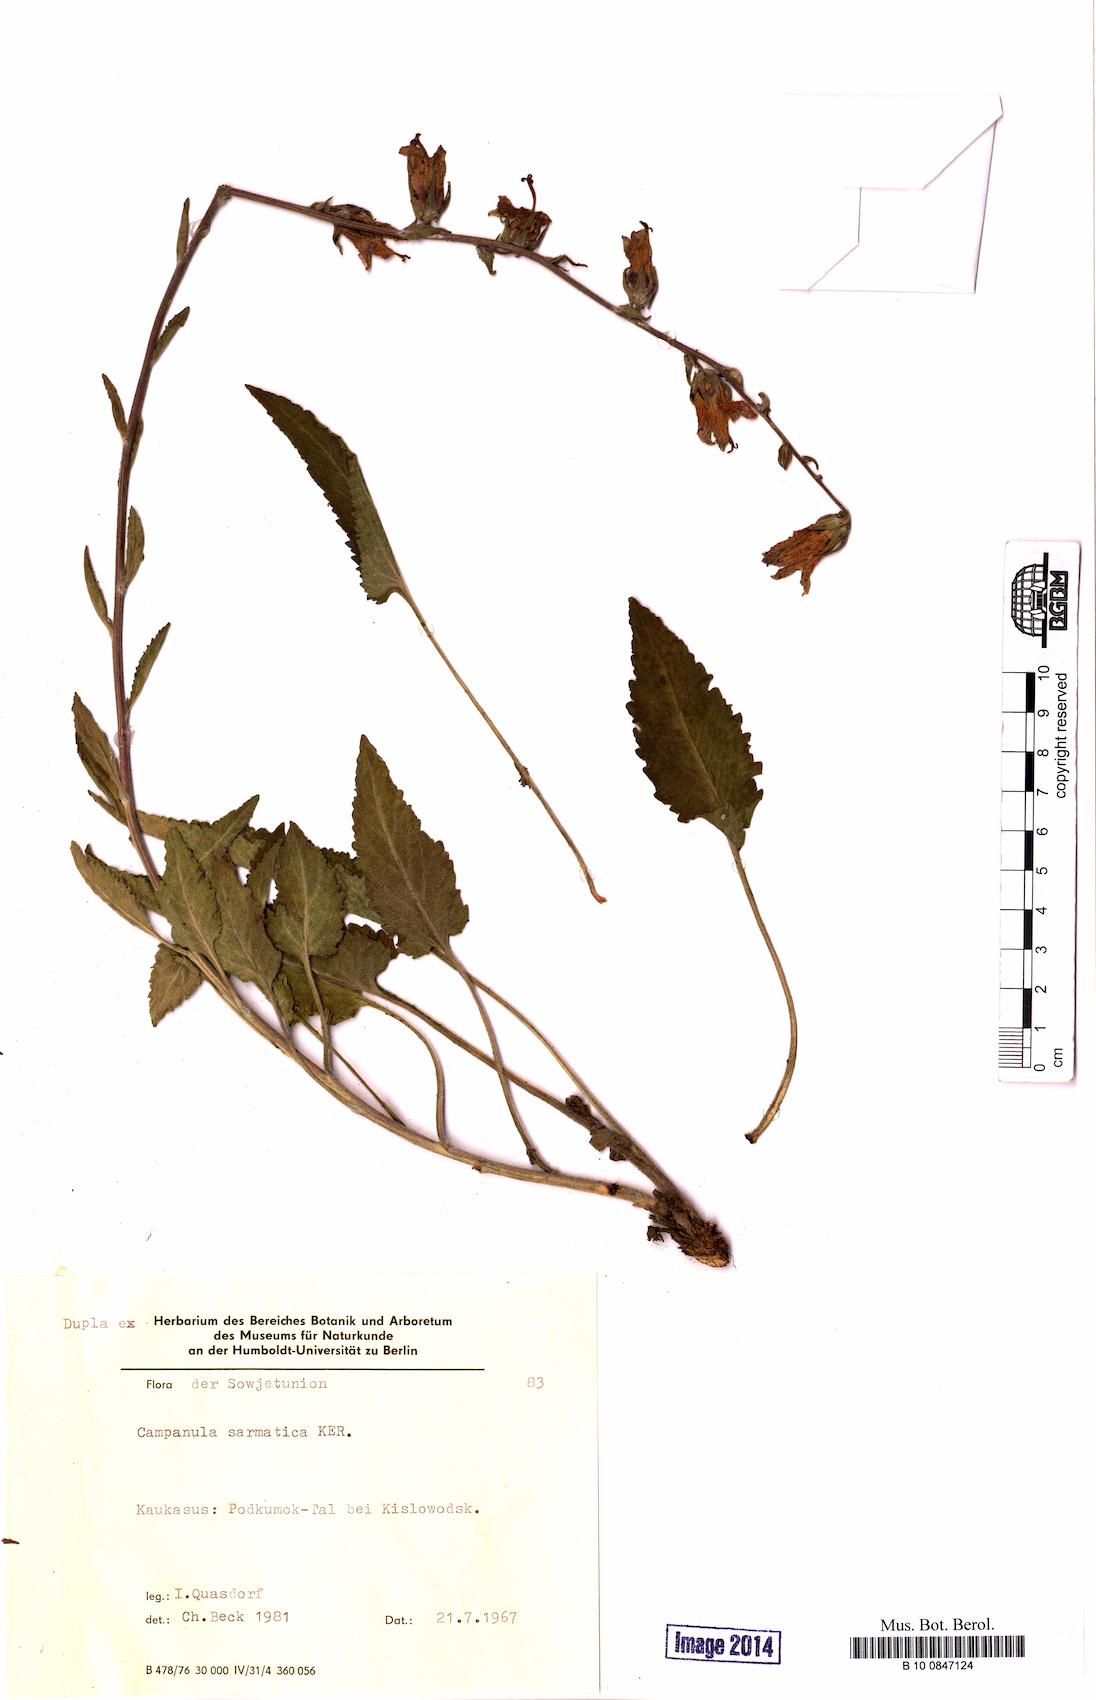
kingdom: Plantae
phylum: Tracheophyta
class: Magnoliopsida
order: Asterales
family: Campanulaceae
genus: Campanula
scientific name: Campanula sarmatica
